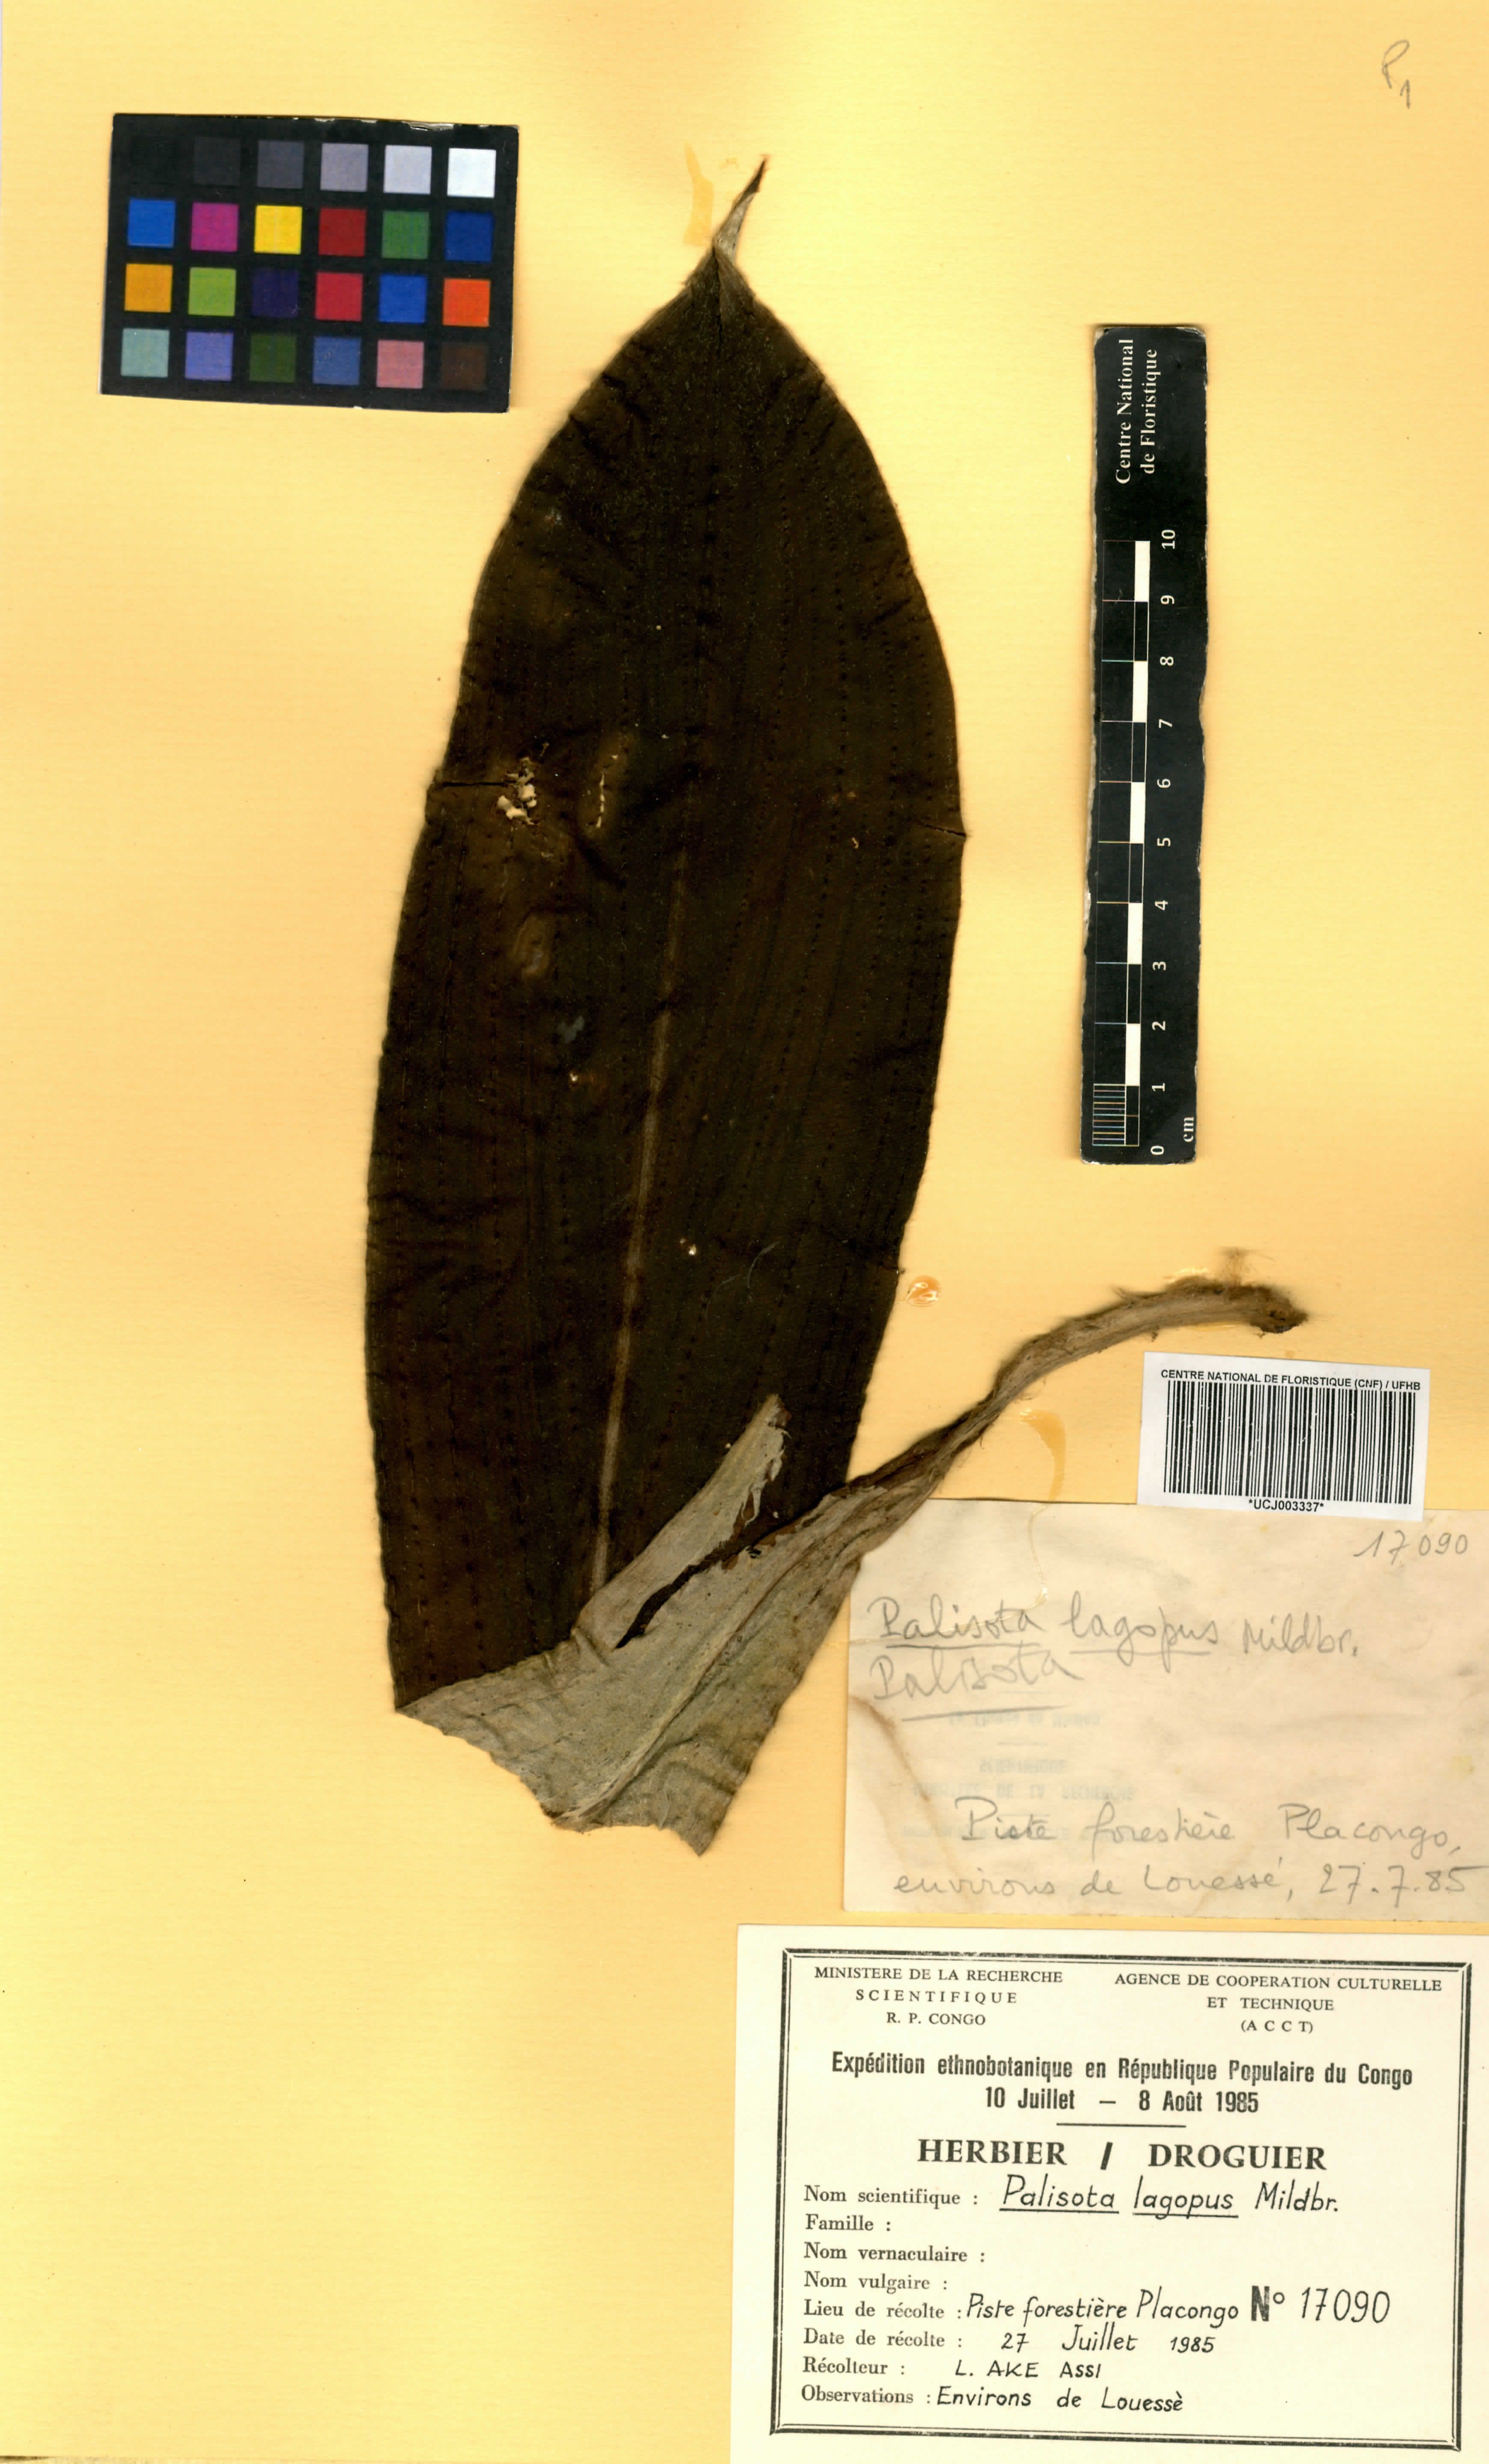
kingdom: Plantae
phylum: Tracheophyta
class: Liliopsida
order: Commelinales
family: Commelinaceae
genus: Palisota
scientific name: Palisota lagopus
